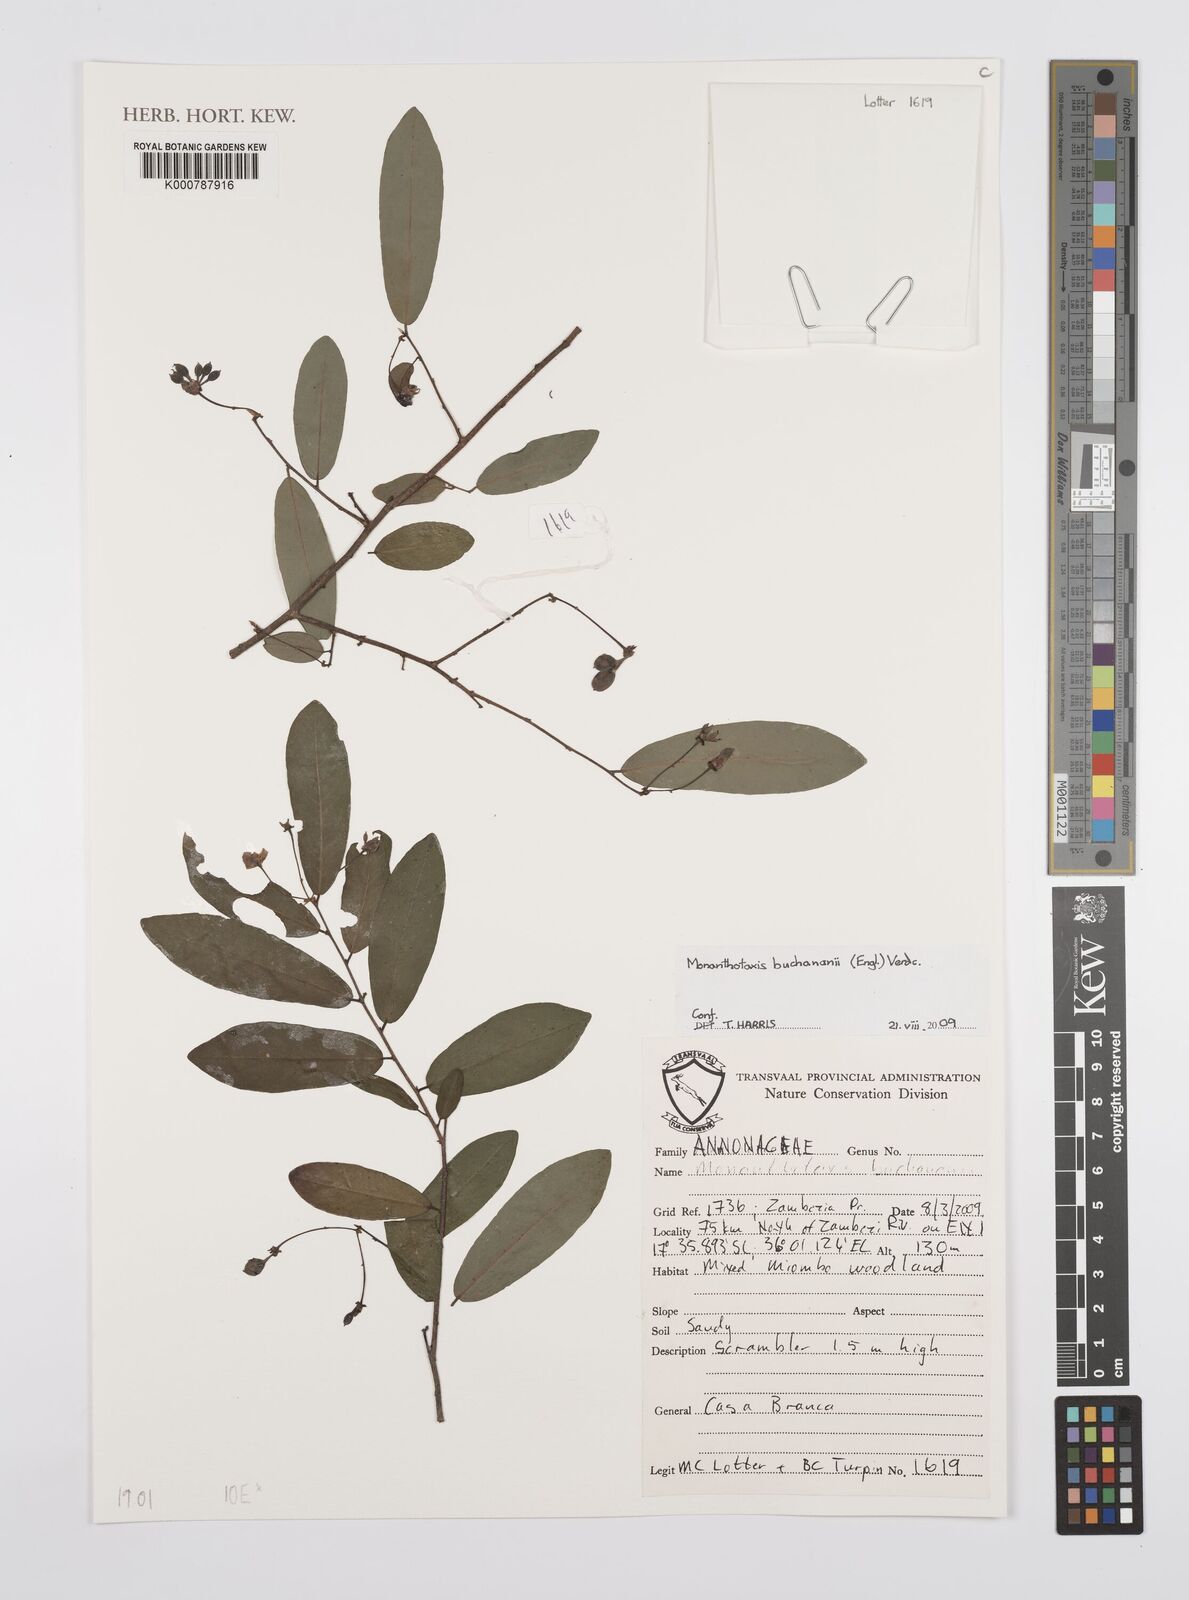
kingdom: Plantae
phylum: Tracheophyta
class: Magnoliopsida
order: Magnoliales
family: Annonaceae
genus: Monanthotaxis
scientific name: Monanthotaxis buchananii
